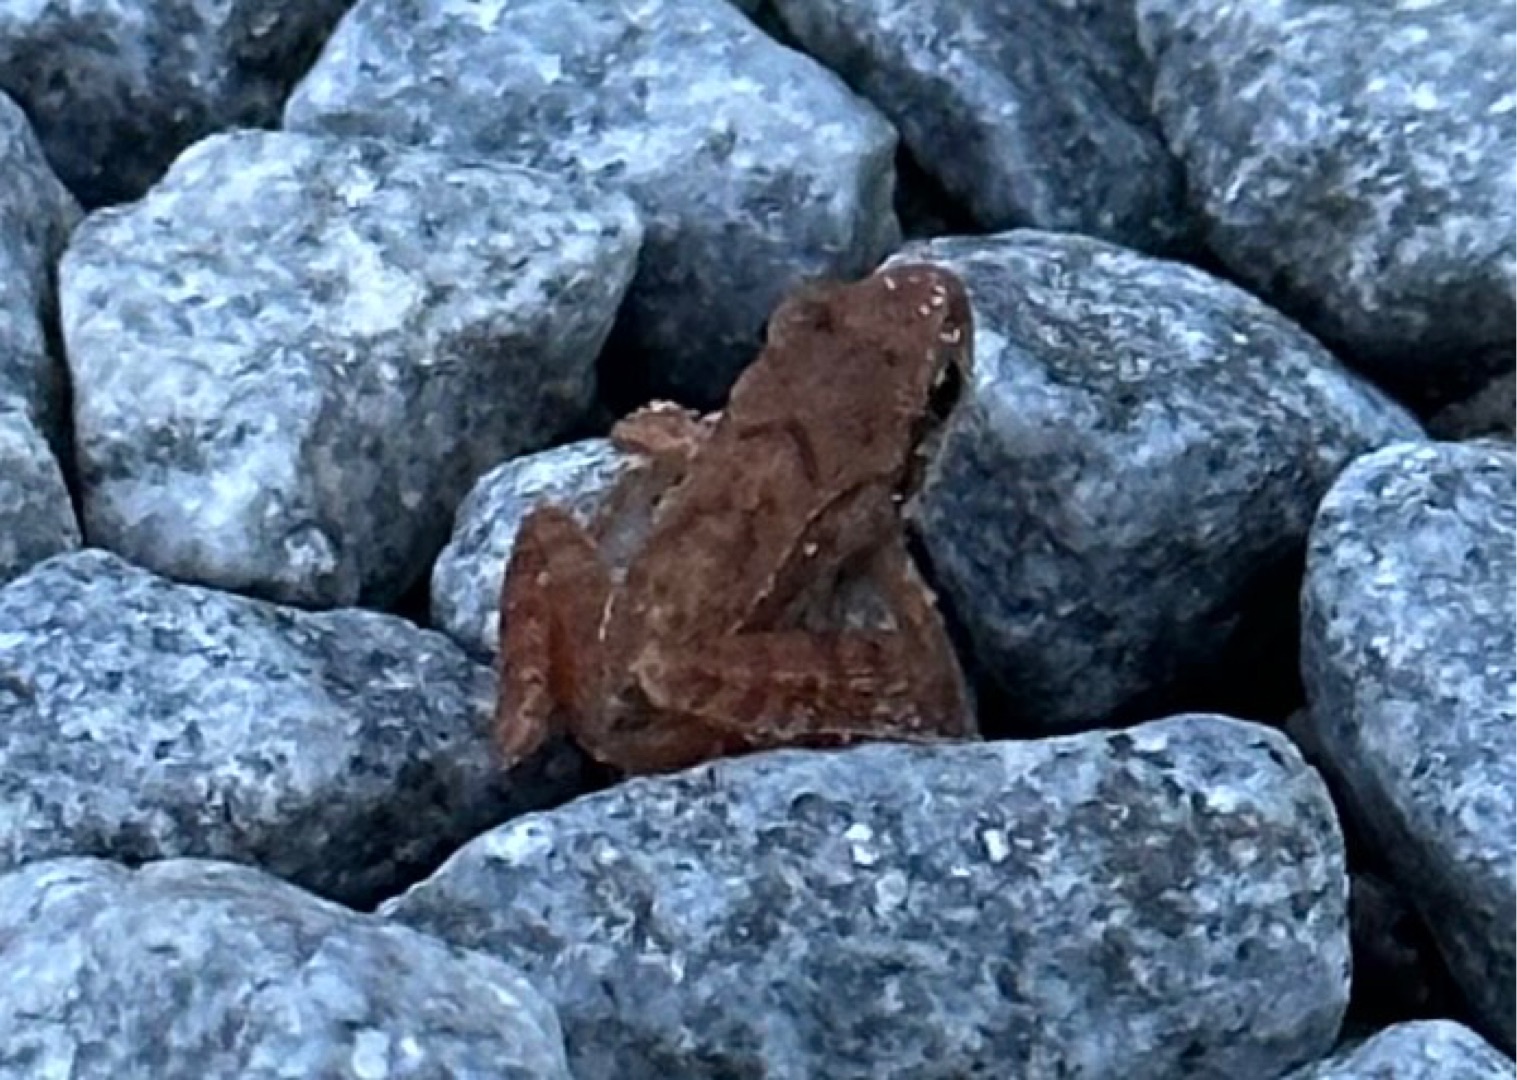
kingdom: Animalia
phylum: Chordata
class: Amphibia
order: Anura
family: Ranidae
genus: Rana
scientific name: Rana temporaria
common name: Butsnudet frø
